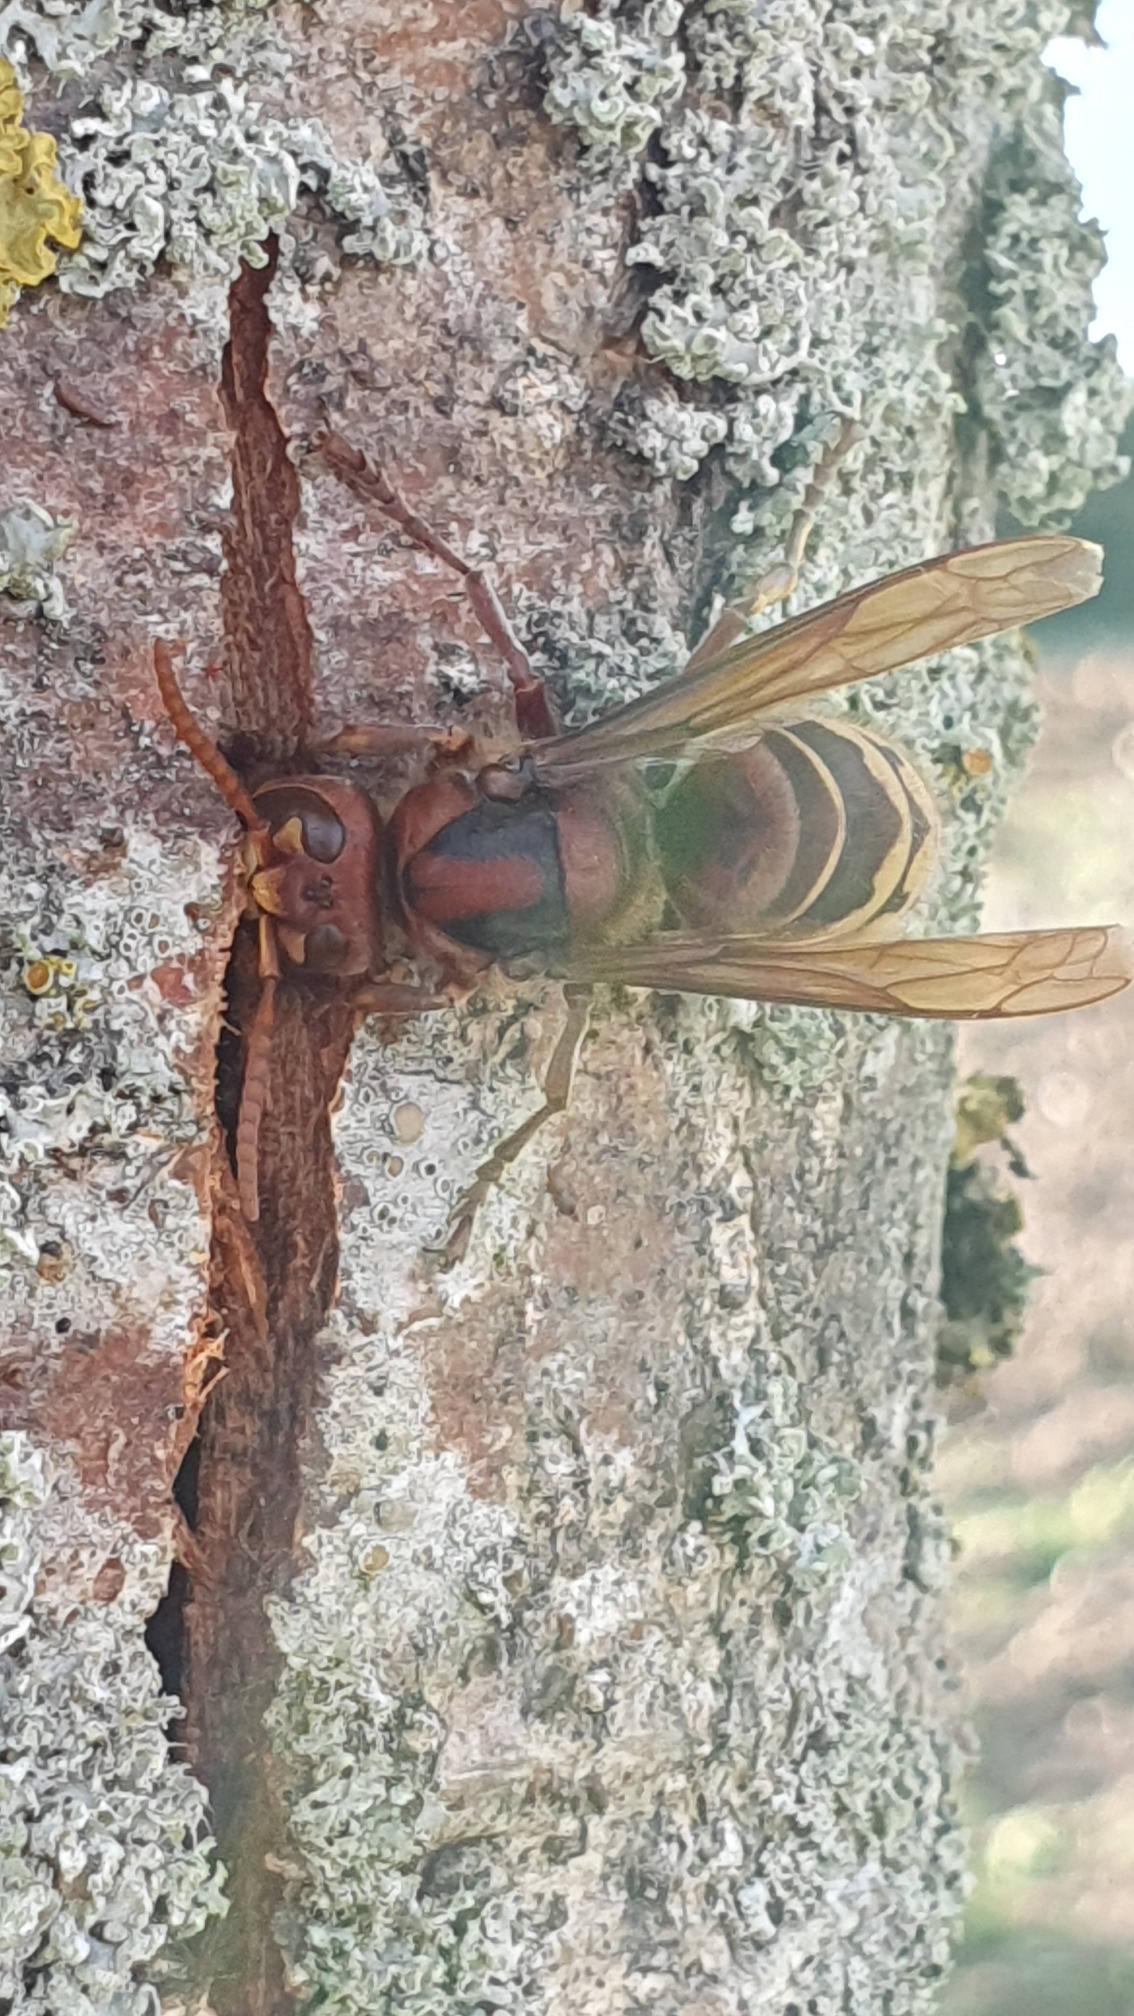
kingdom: Animalia
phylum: Arthropoda
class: Insecta
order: Hymenoptera
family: Vespidae
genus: Vespa
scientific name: Vespa crabro
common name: Stor gedehams
